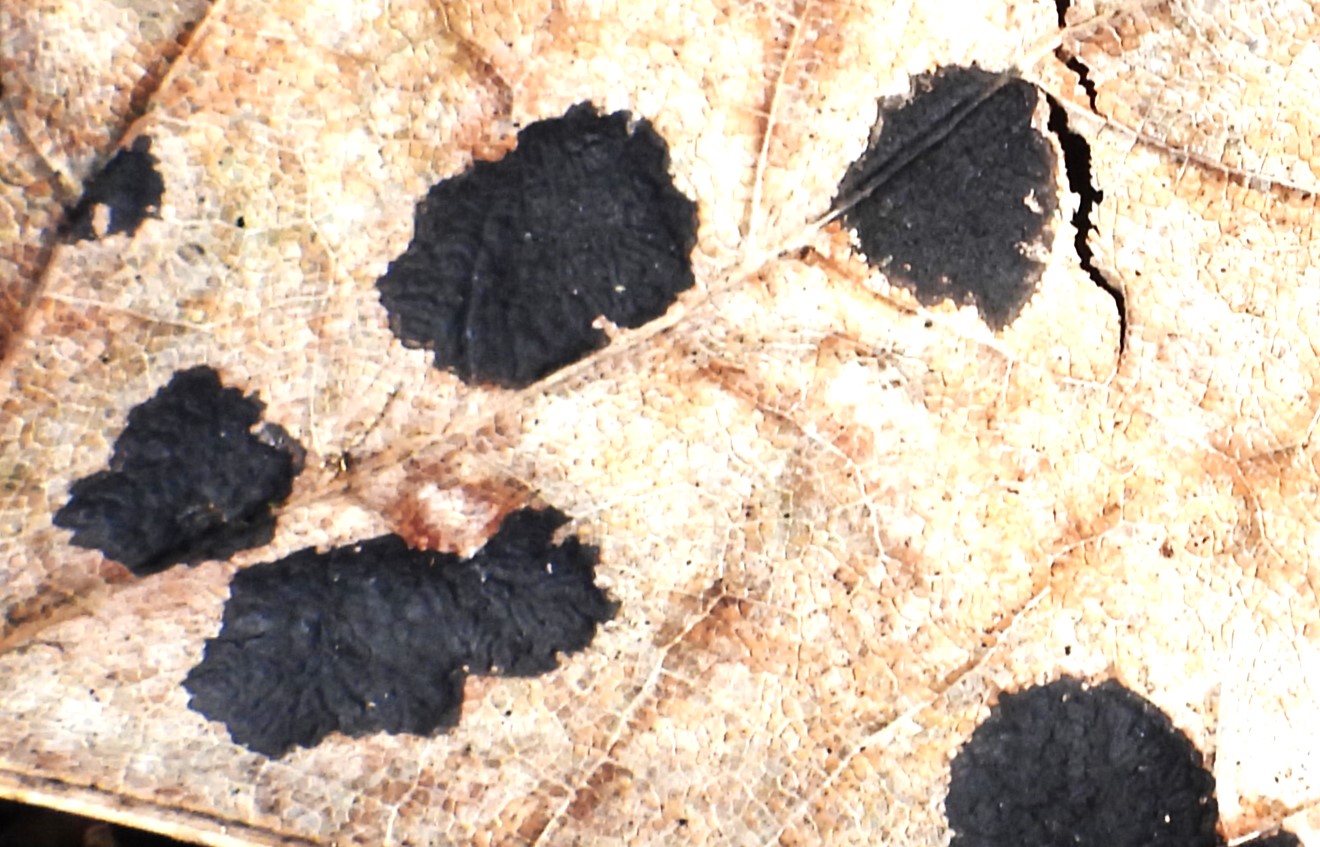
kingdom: Fungi
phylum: Ascomycota
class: Leotiomycetes
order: Rhytismatales
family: Rhytismataceae
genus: Rhytisma
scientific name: Rhytisma acerinum
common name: ahorn-rynkeplet
